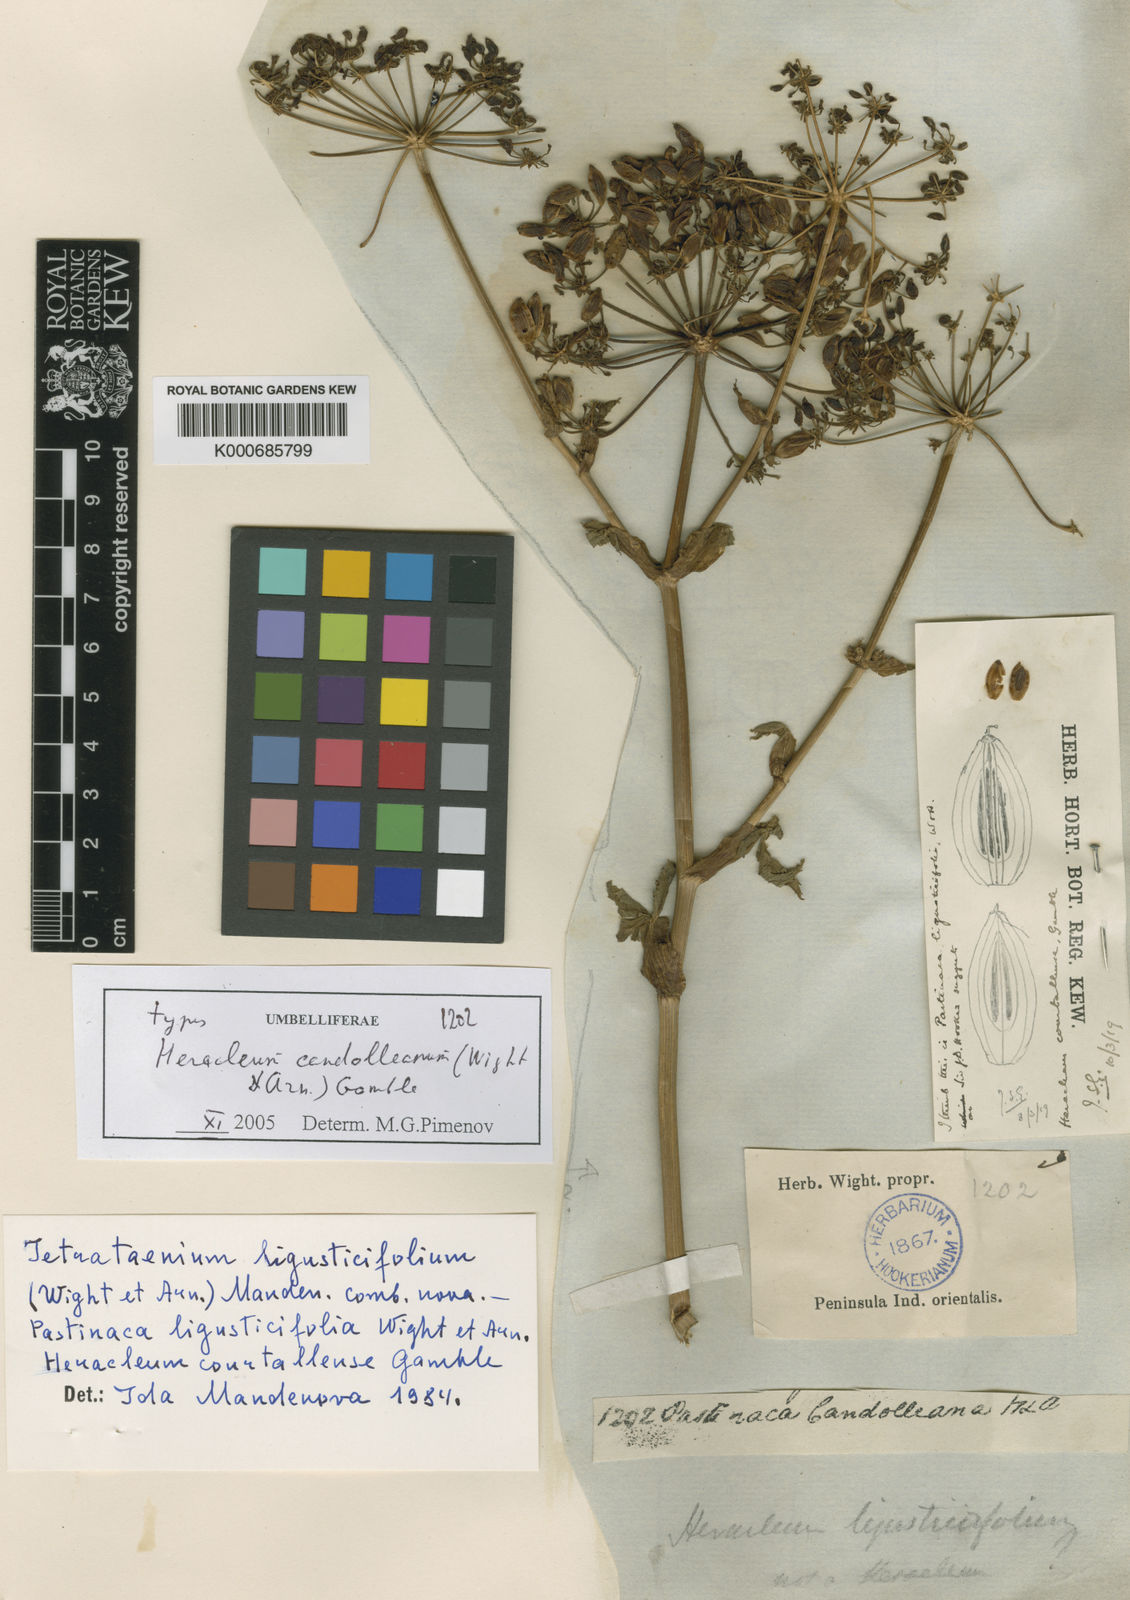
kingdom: Plantae
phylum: Tracheophyta
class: Magnoliopsida
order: Apiales
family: Apiaceae
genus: Tetrataenium
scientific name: Tetrataenium rigens
